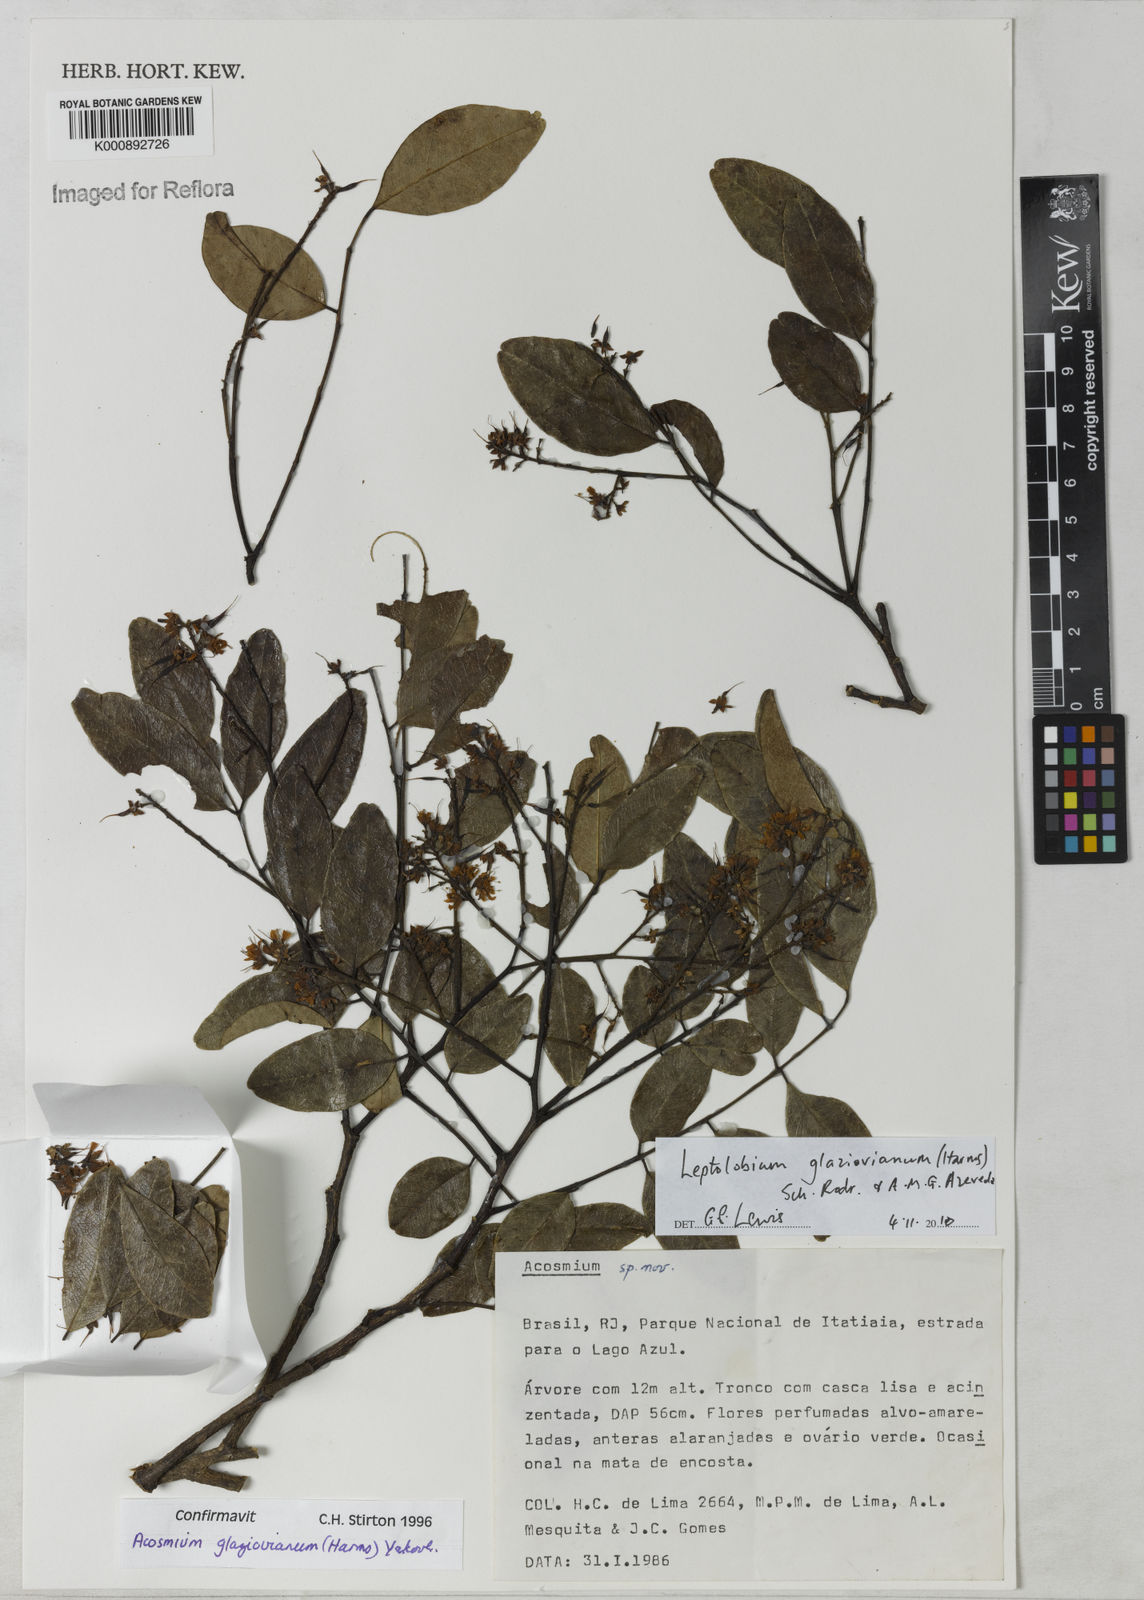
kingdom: Plantae
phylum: Tracheophyta
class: Magnoliopsida
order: Fabales
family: Fabaceae
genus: Leptolobium
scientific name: Leptolobium glaziovianum
